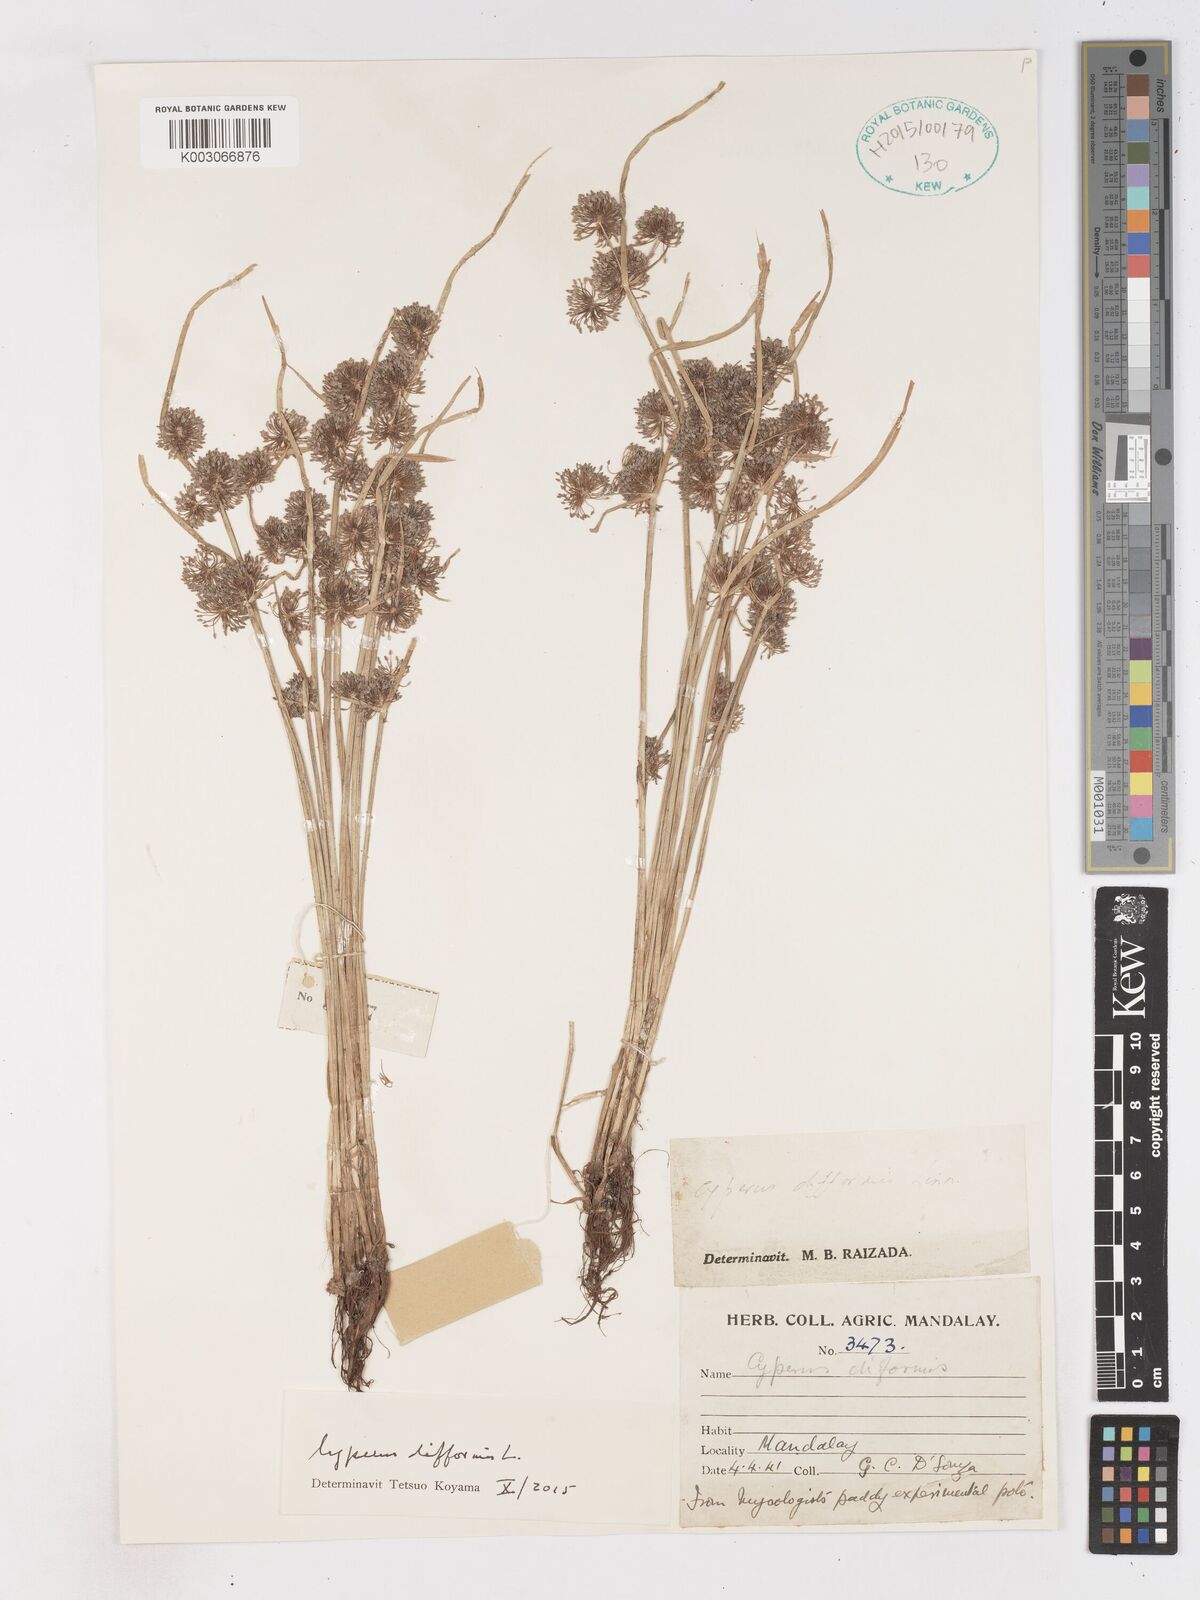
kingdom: Plantae
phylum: Tracheophyta
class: Liliopsida
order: Poales
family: Cyperaceae
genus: Cyperus
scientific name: Cyperus difformis
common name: Variable flatsedge
